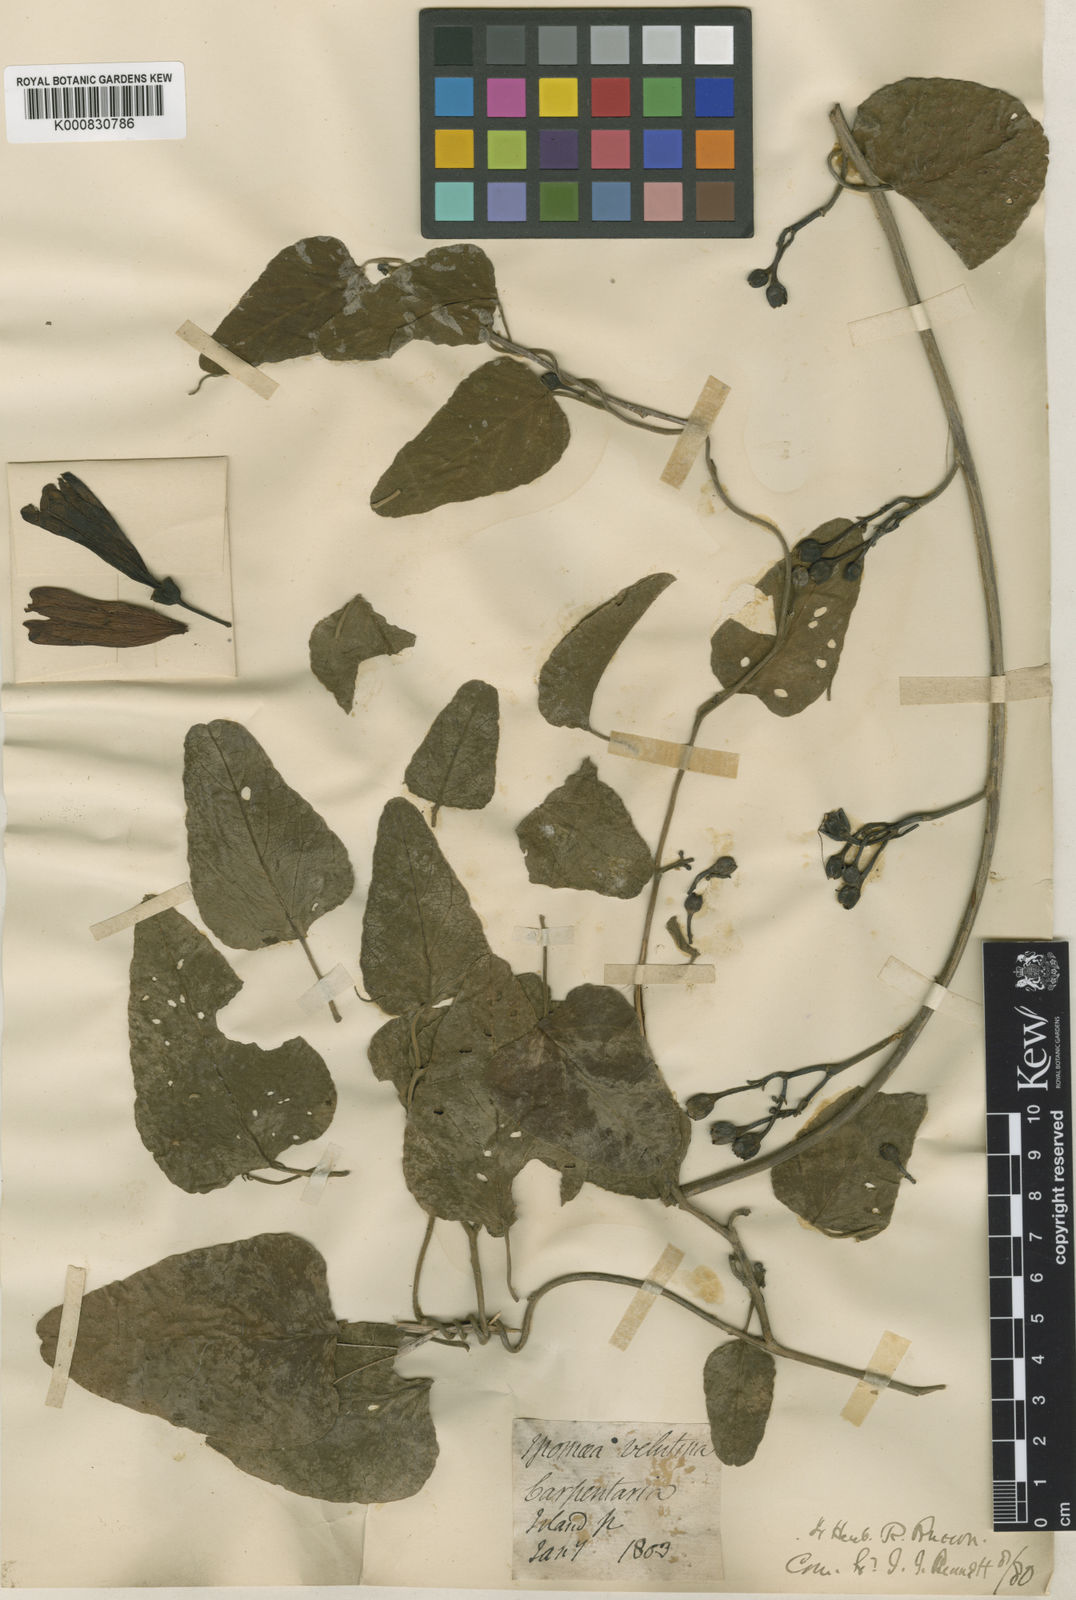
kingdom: Plantae
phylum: Tracheophyta
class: Magnoliopsida
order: Solanales
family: Convolvulaceae
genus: Ipomoea
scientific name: Ipomoea velutina
